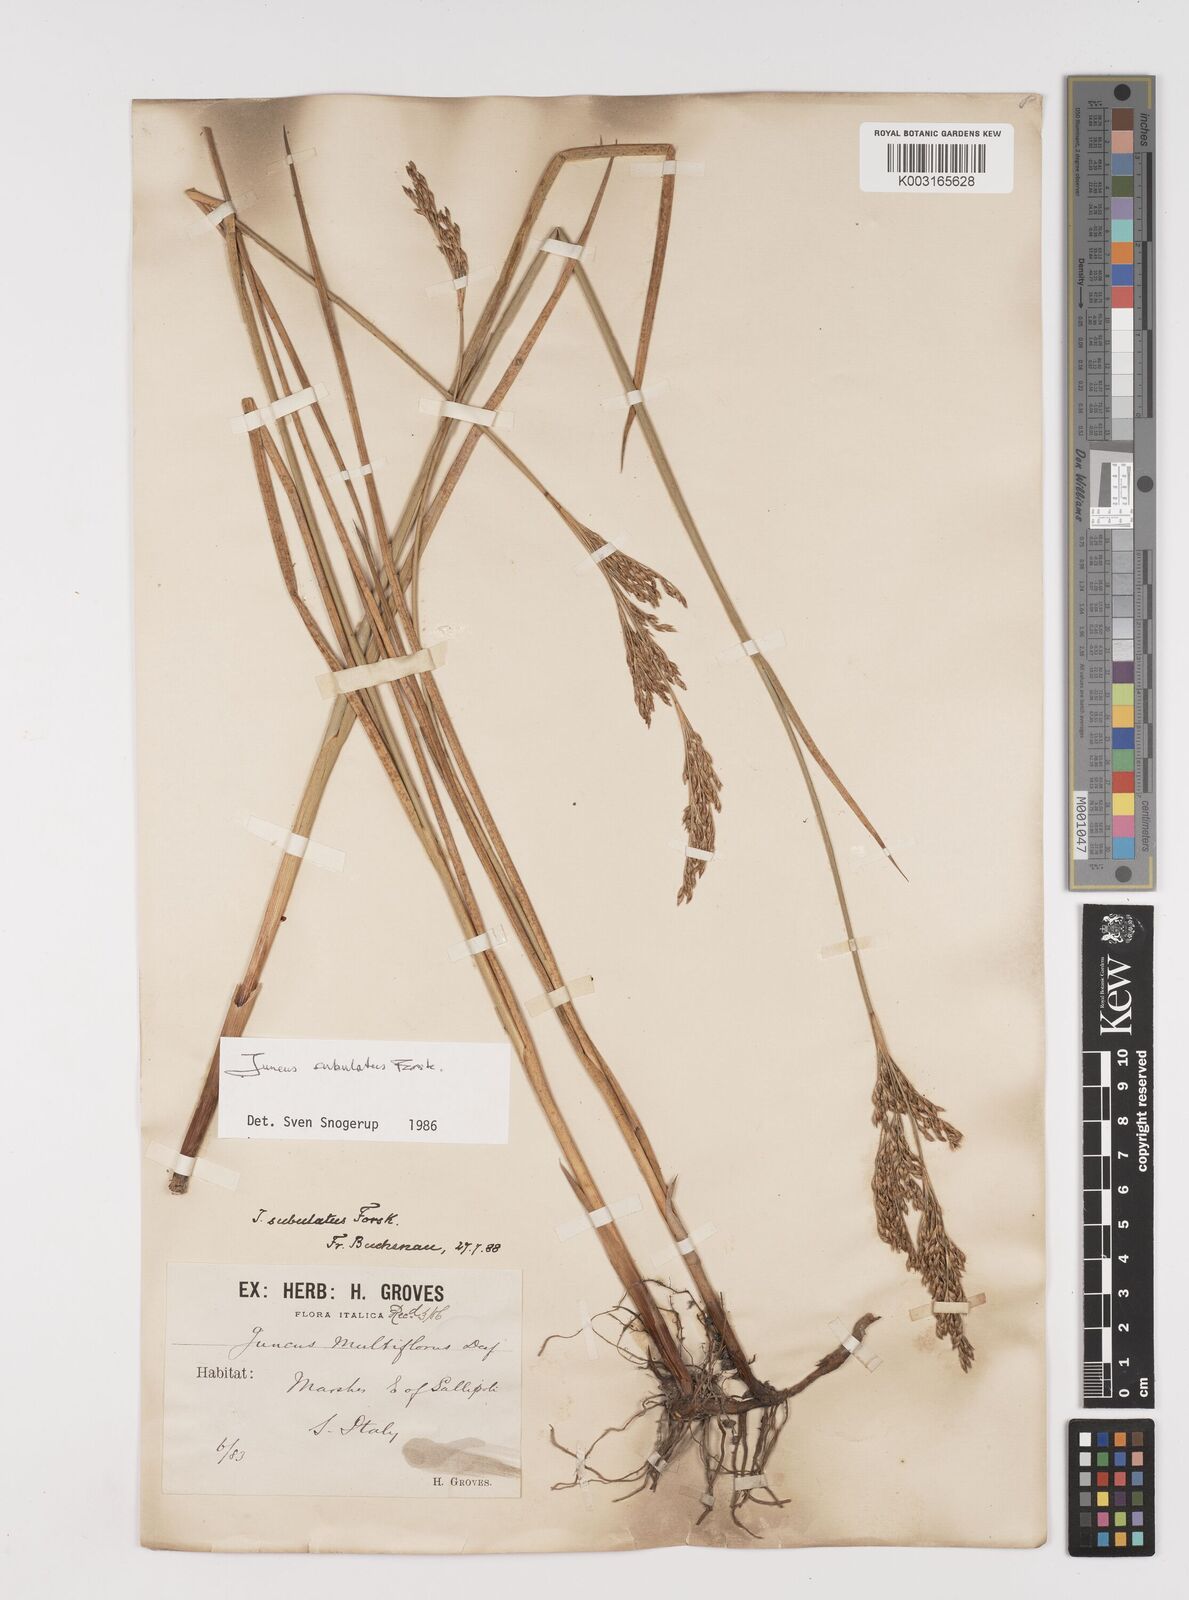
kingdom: Plantae
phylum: Tracheophyta
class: Liliopsida
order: Poales
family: Juncaceae
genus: Juncus
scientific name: Juncus subulatus
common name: Somerset rush
